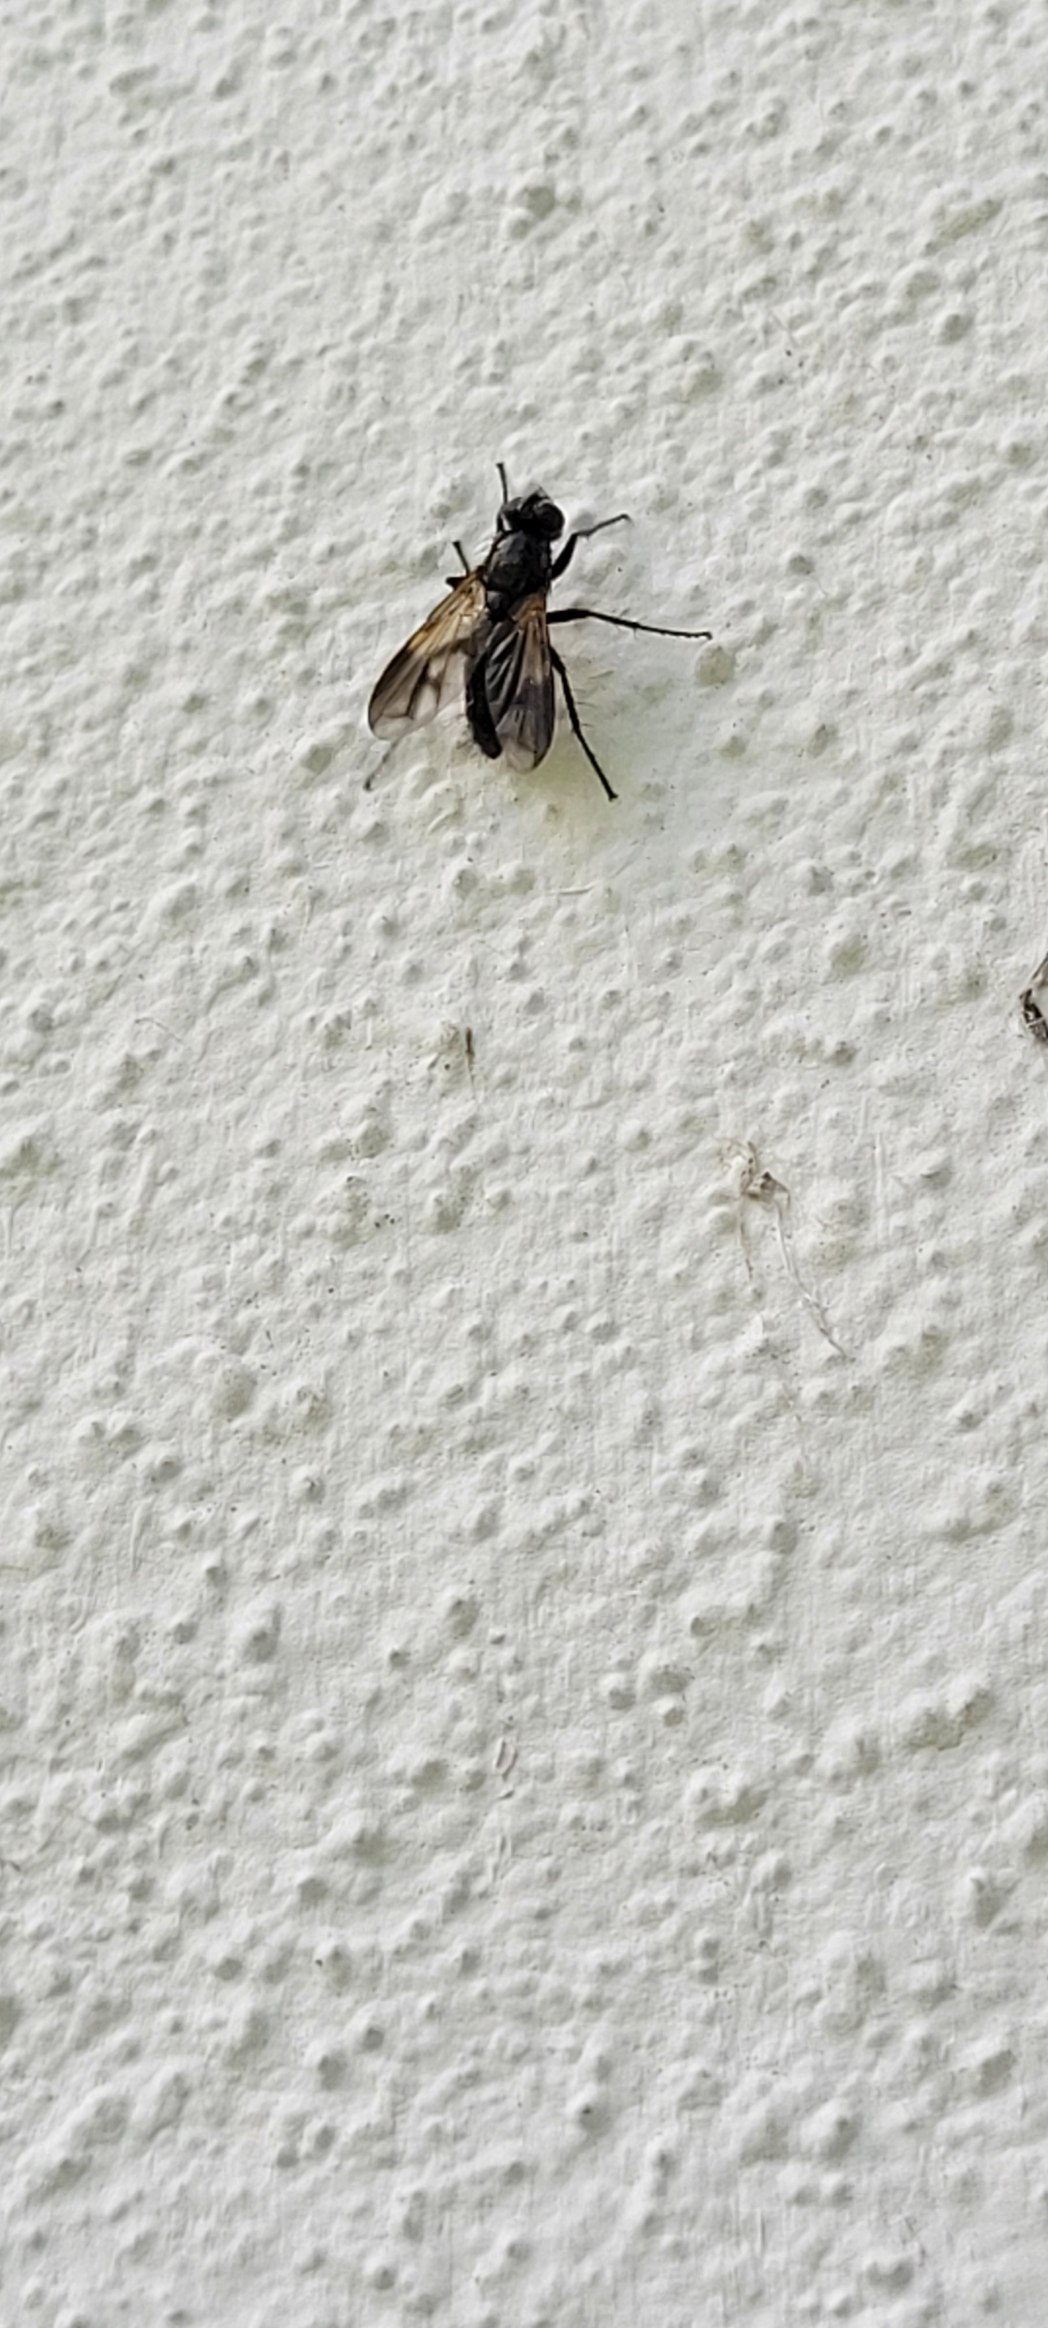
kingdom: Animalia
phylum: Arthropoda
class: Insecta
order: Diptera
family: Calliphoridae
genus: Paykullia
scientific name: Paykullia maculata
